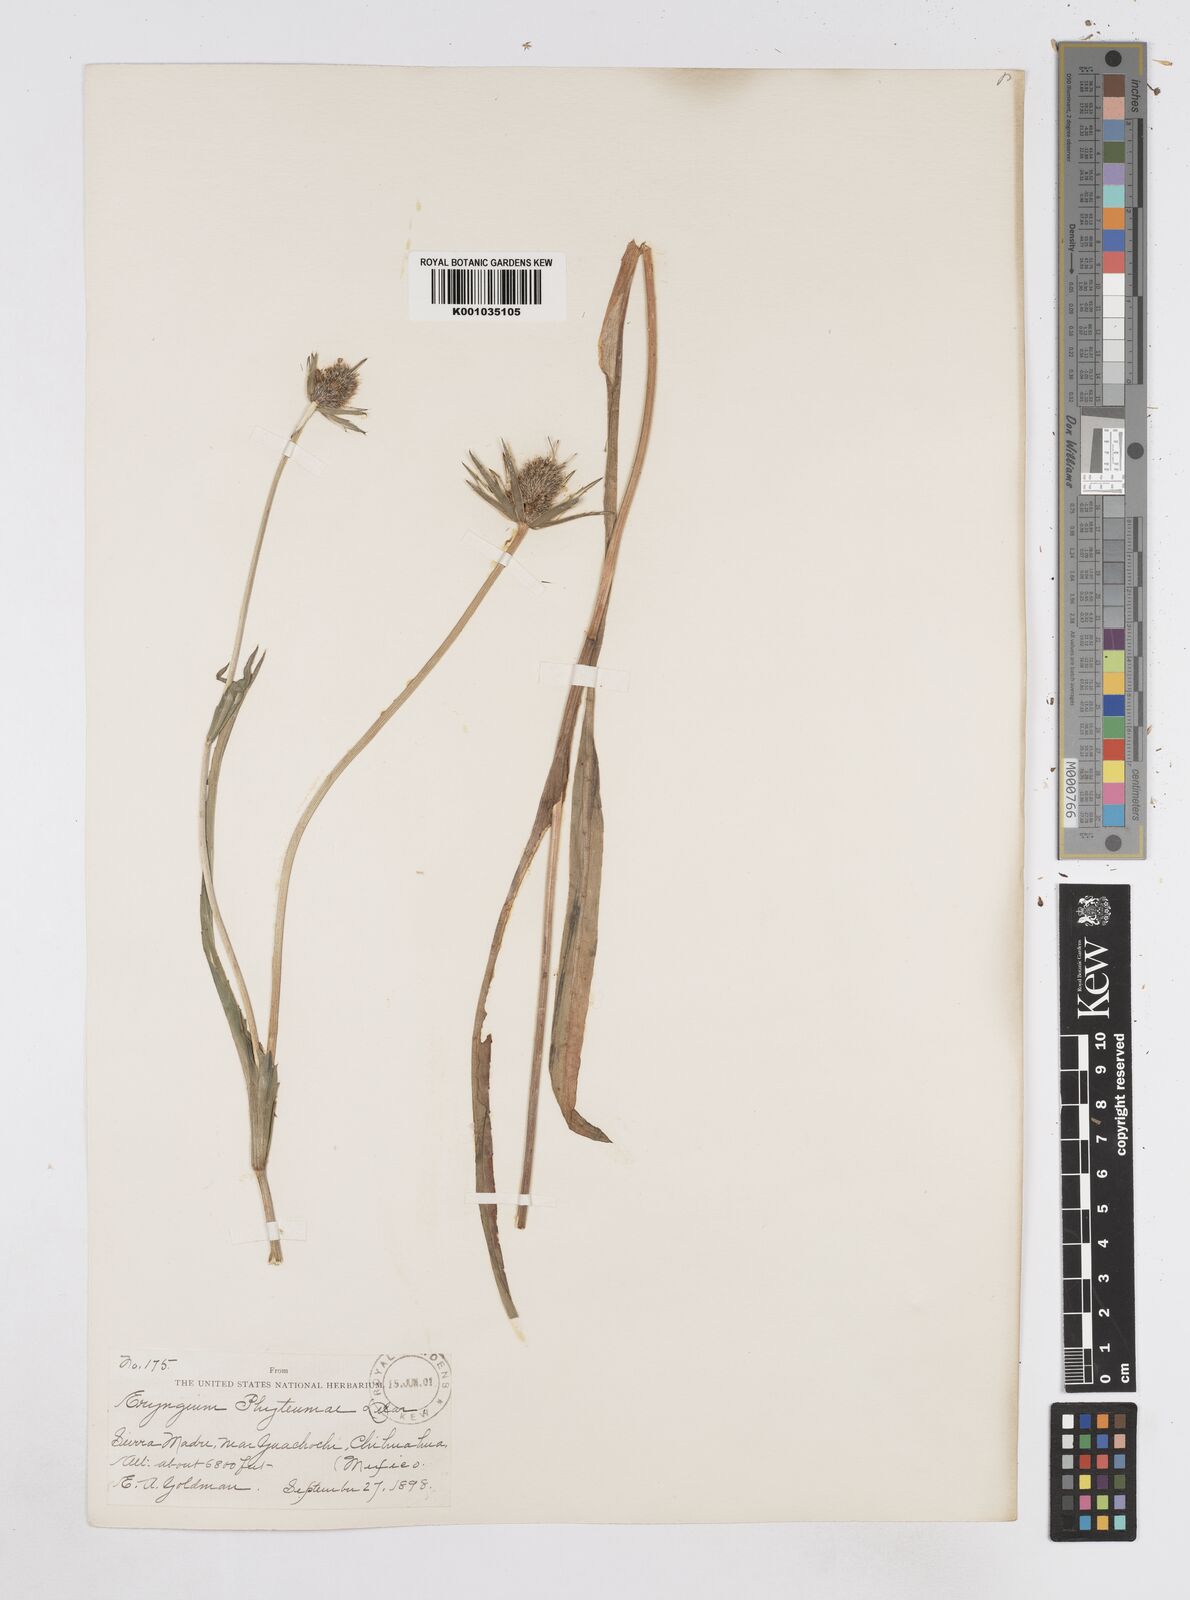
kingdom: Plantae
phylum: Tracheophyta
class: Magnoliopsida
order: Apiales
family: Apiaceae
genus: Eryngium
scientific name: Eryngium phyteumae
